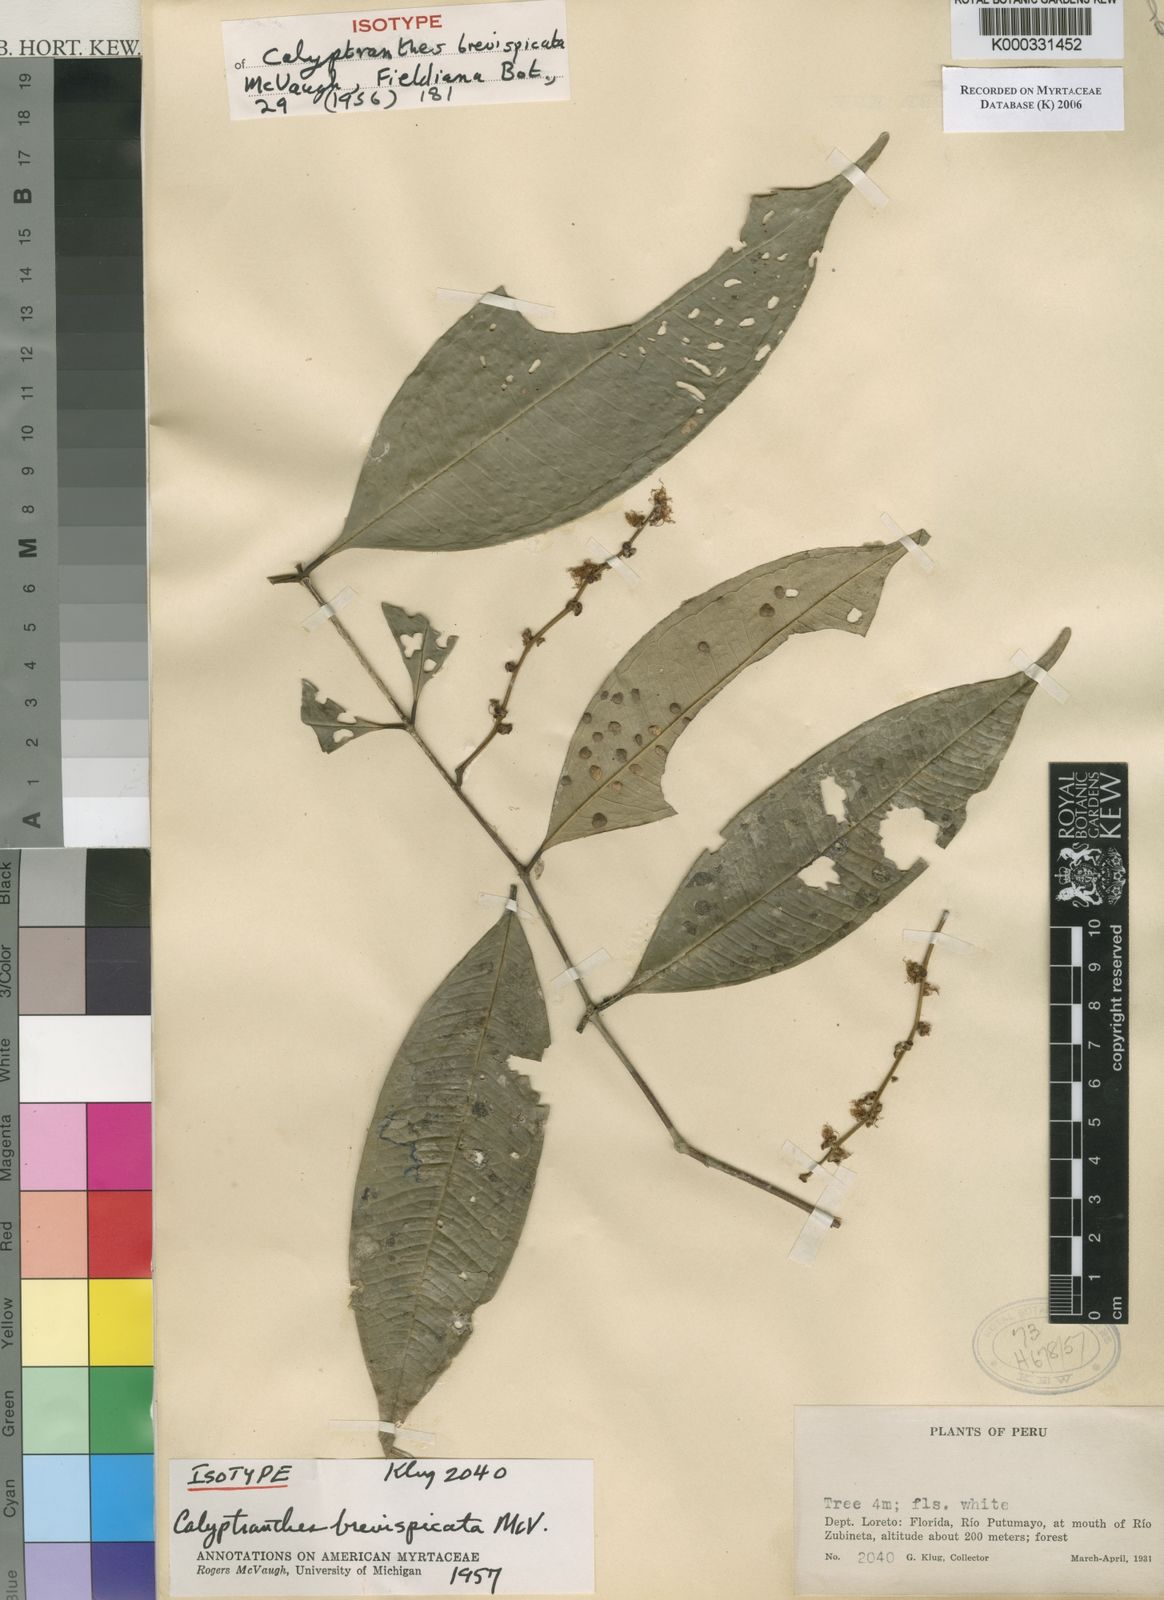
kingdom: Plantae
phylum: Tracheophyta
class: Magnoliopsida
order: Myrtales
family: Myrtaceae
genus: Myrcia
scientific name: Myrcia brevispicata
